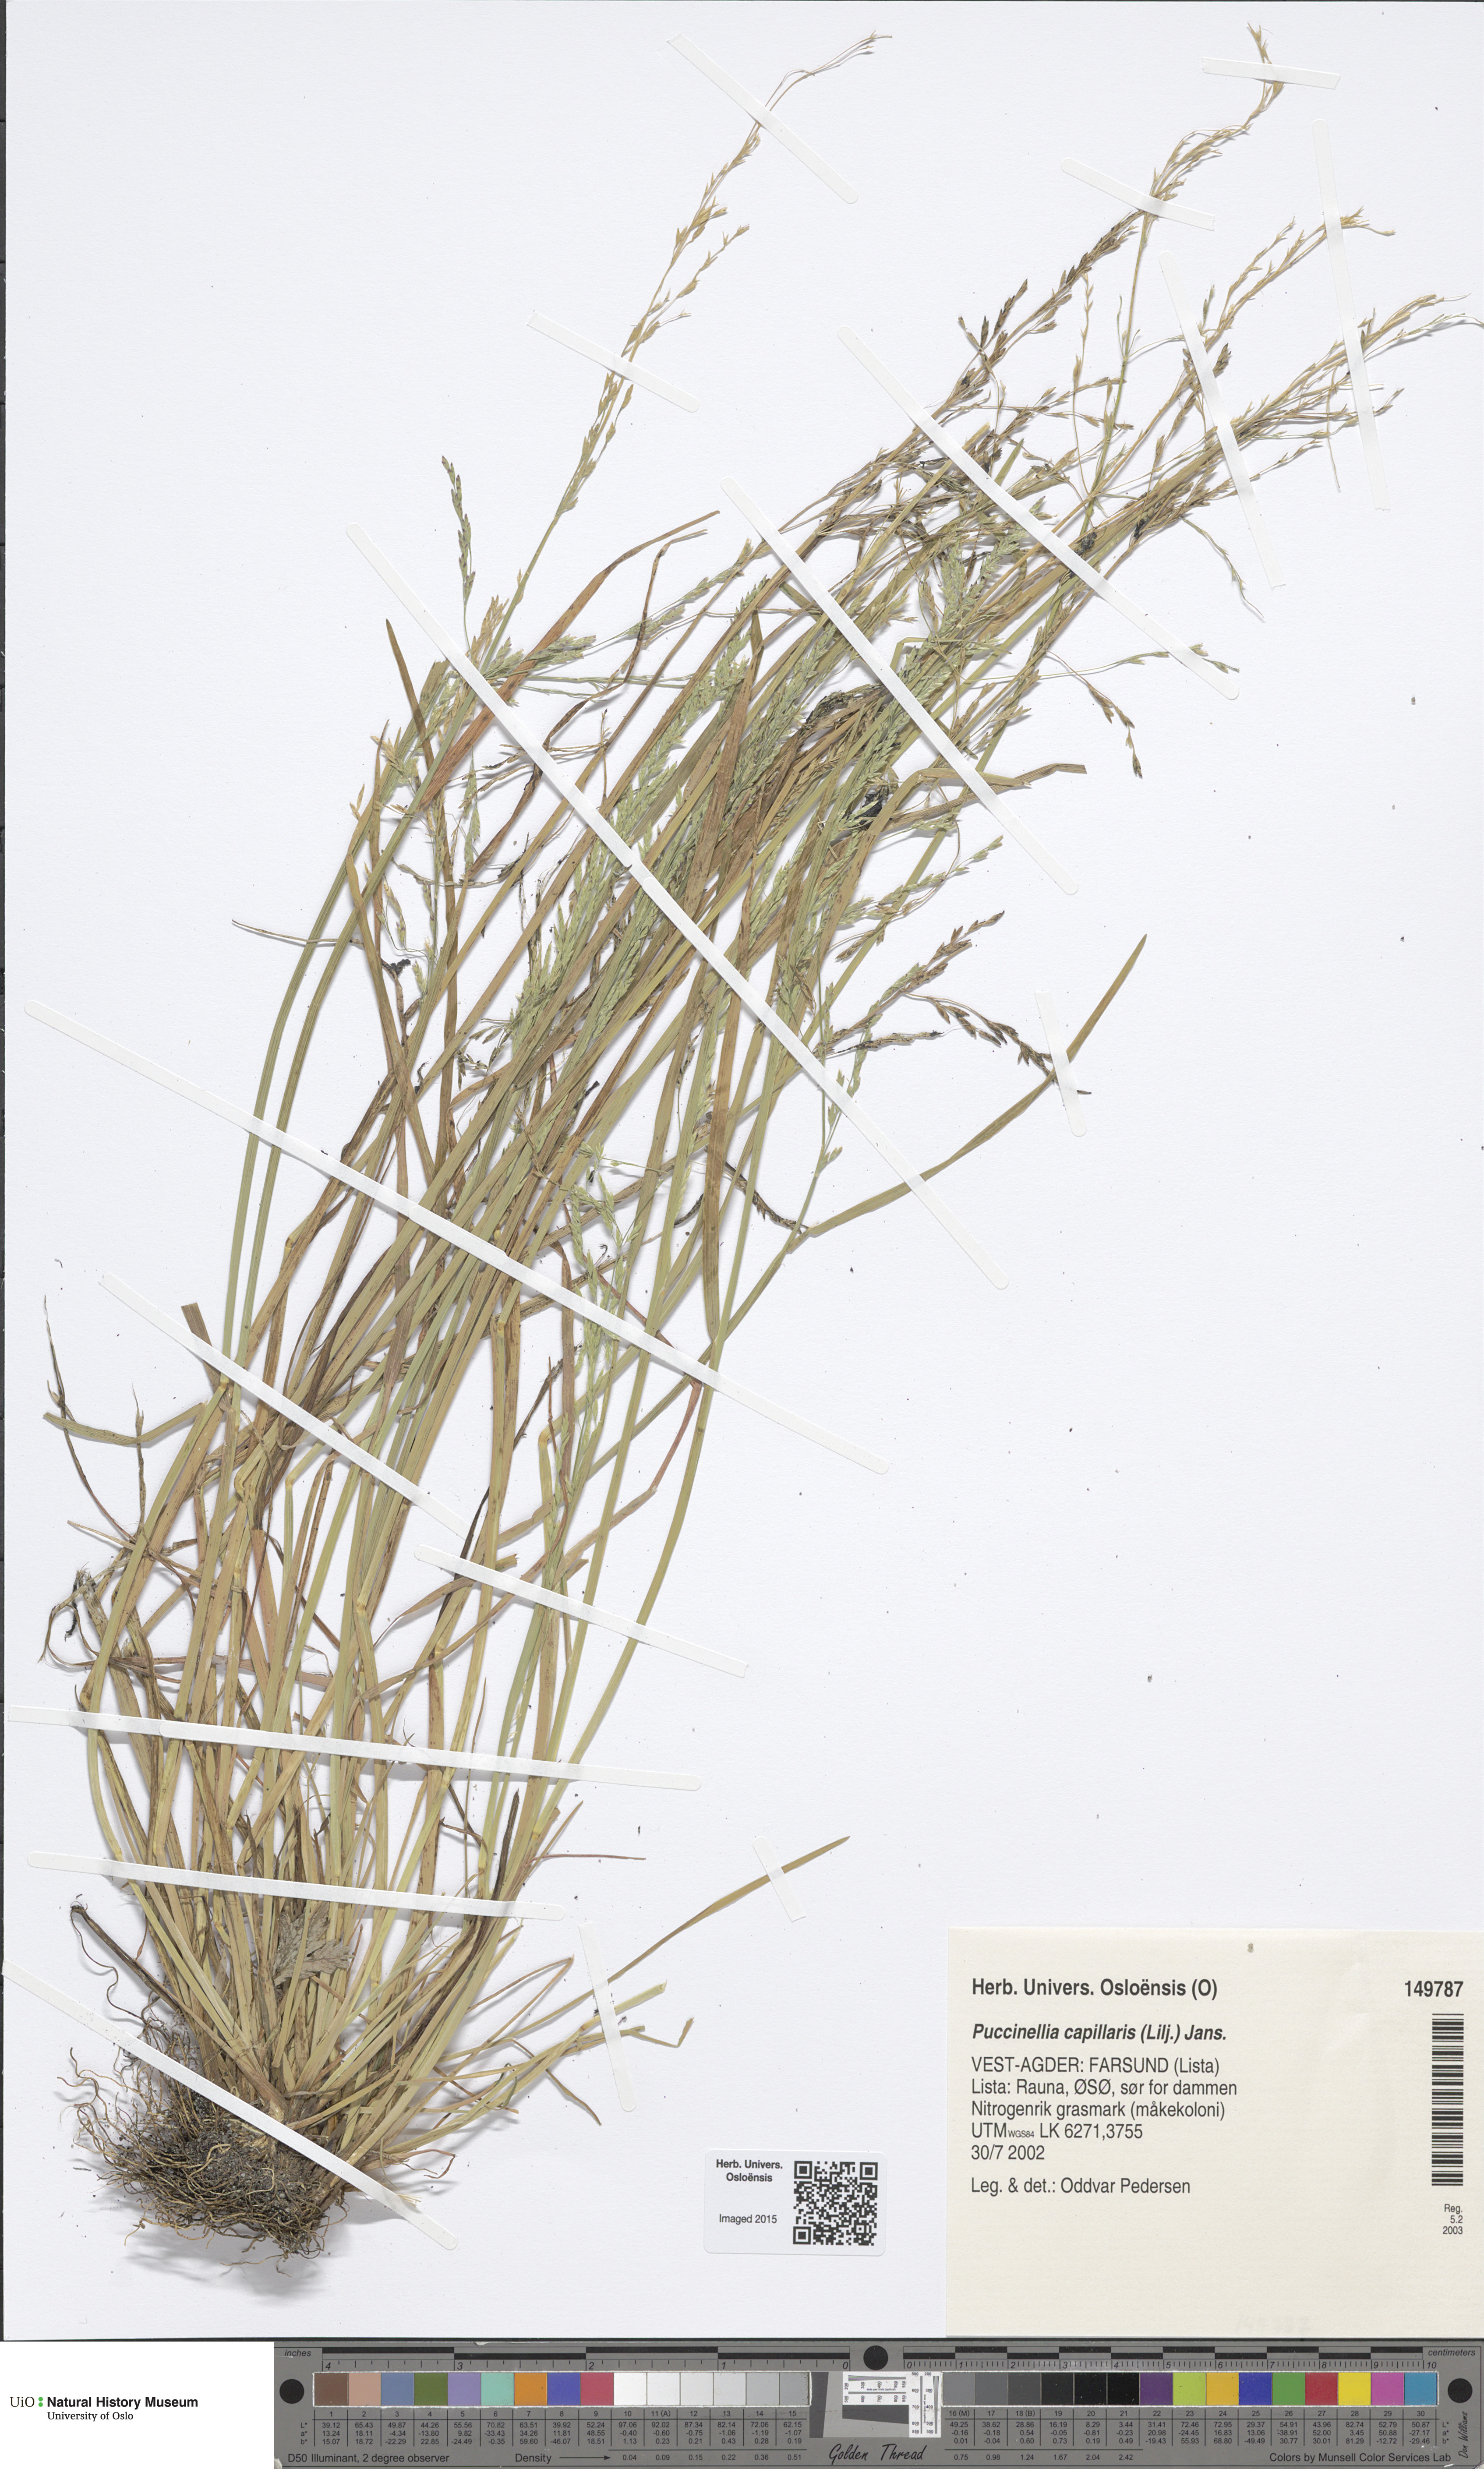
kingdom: Plantae
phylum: Tracheophyta
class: Liliopsida
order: Poales
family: Poaceae
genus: Puccinellia
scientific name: Puccinellia distans
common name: Weeping alkaligrass
